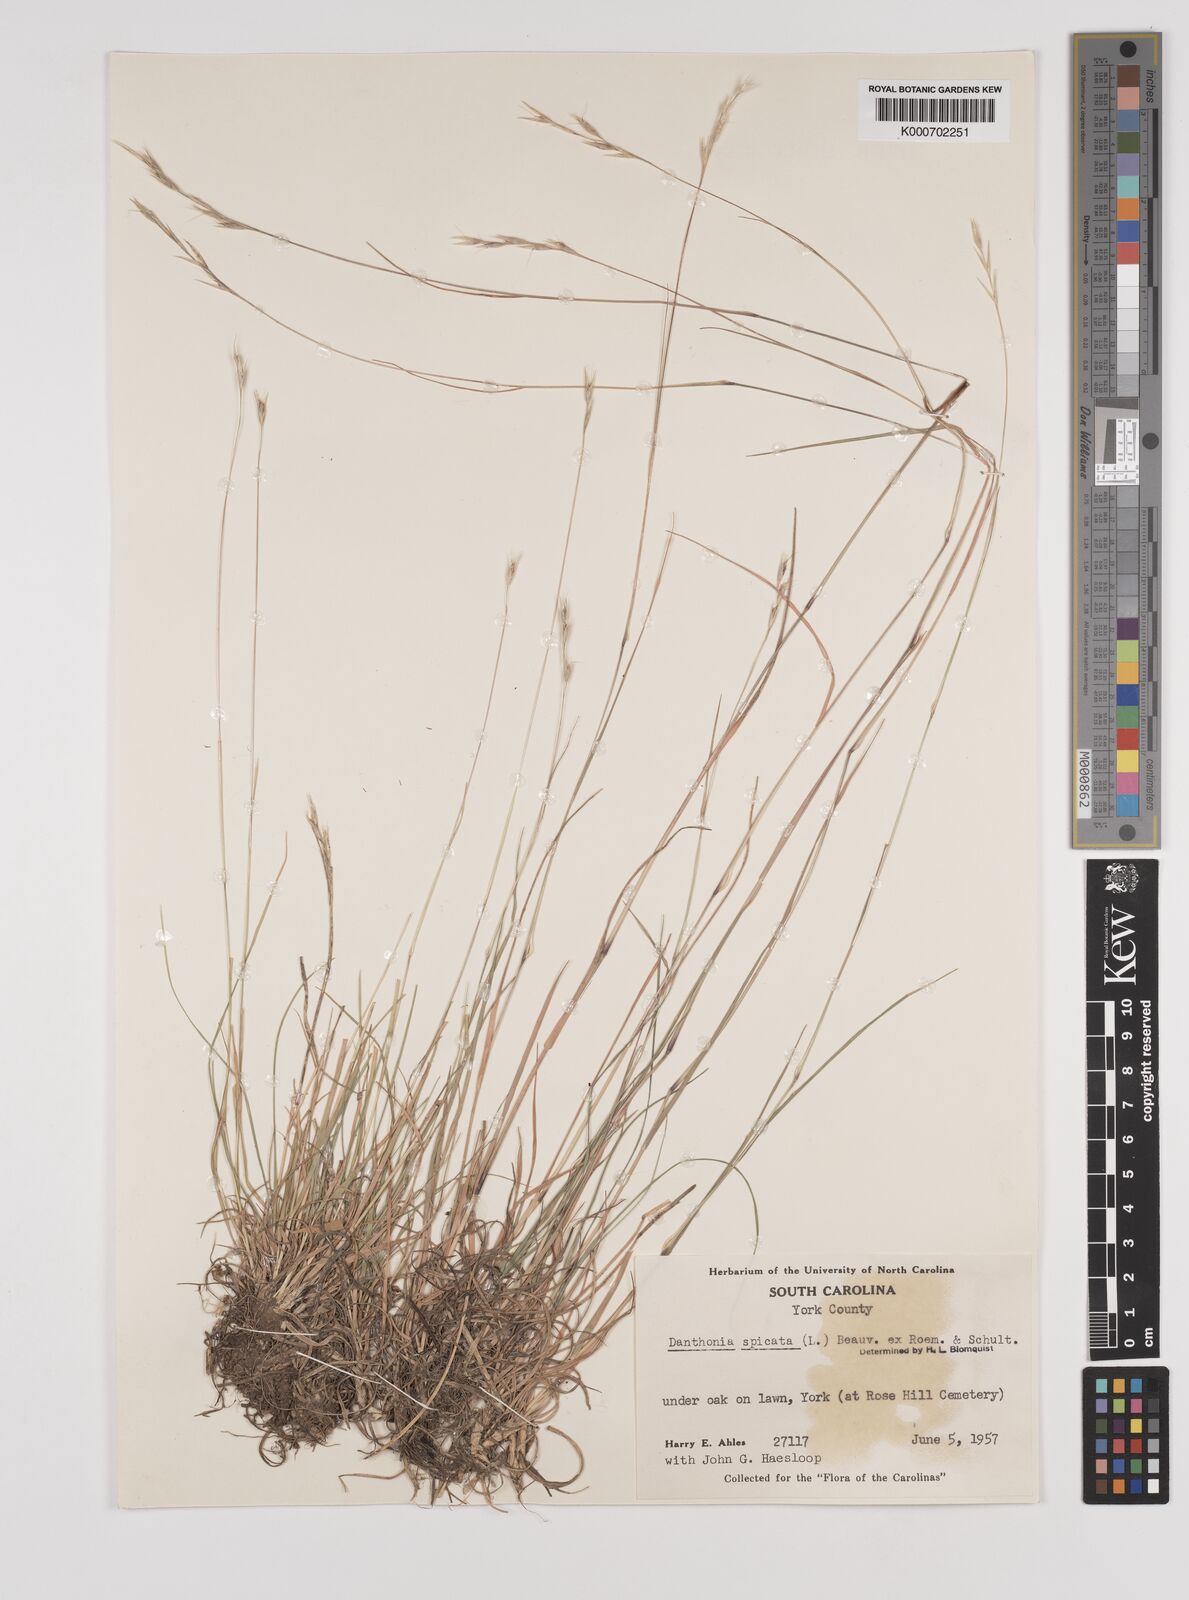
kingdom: Plantae
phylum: Tracheophyta
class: Liliopsida
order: Poales
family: Poaceae
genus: Danthonia
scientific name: Danthonia spicata
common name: Common wild oatgrass
